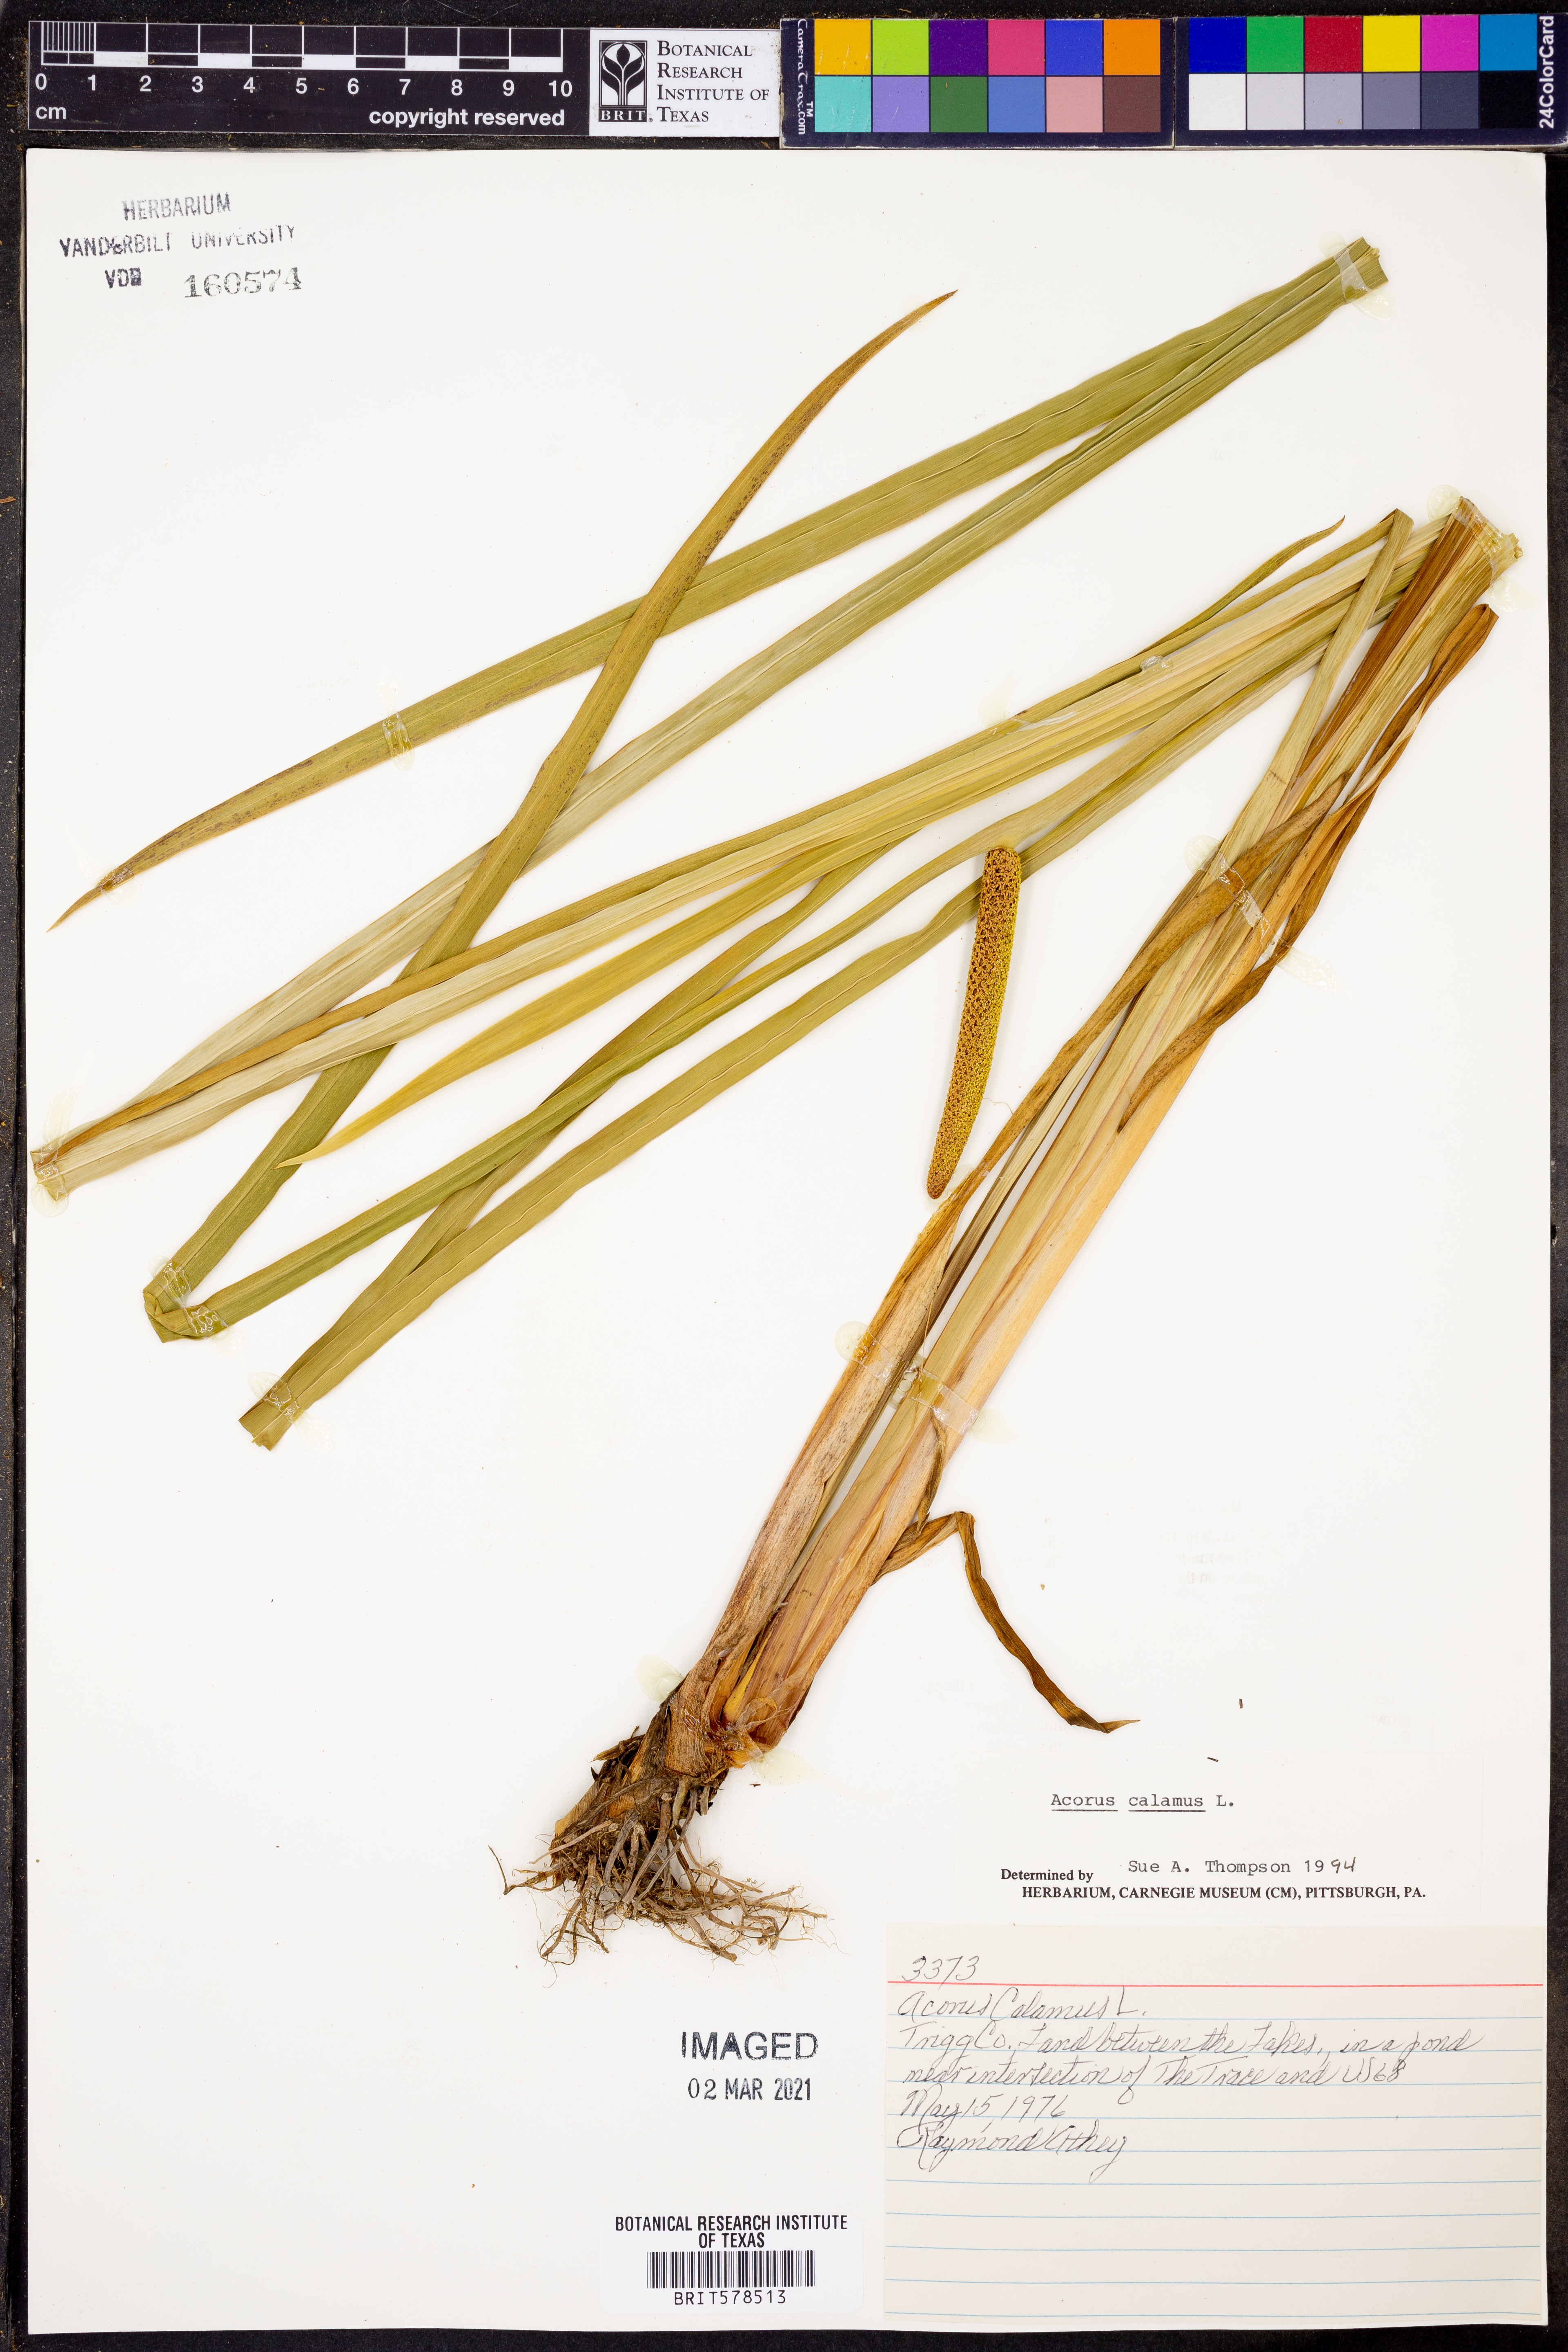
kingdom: Plantae
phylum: Tracheophyta
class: Liliopsida
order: Acorales
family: Acoraceae
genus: Acorus
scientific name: Acorus calamus
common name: Sweet-flag
